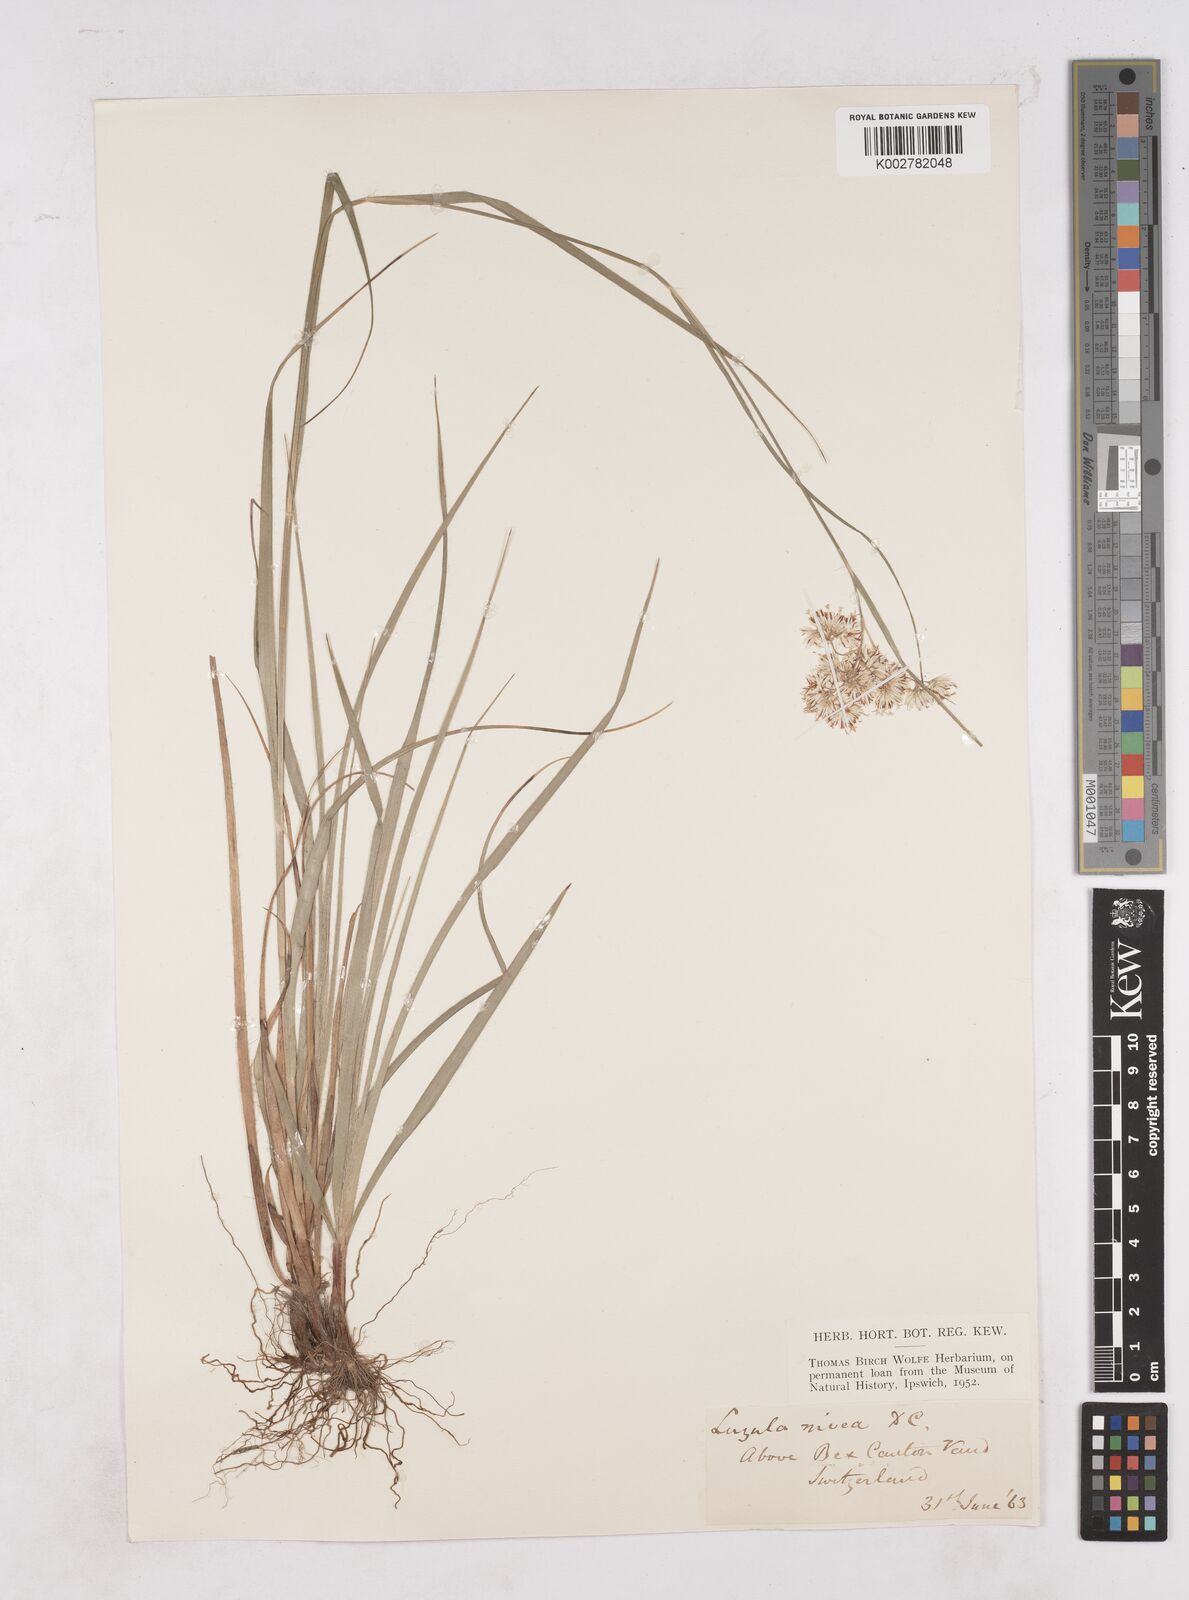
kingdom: Plantae
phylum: Tracheophyta
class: Liliopsida
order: Poales
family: Juncaceae
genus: Luzula
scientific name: Luzula nivea
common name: Snow-white wood-rush
